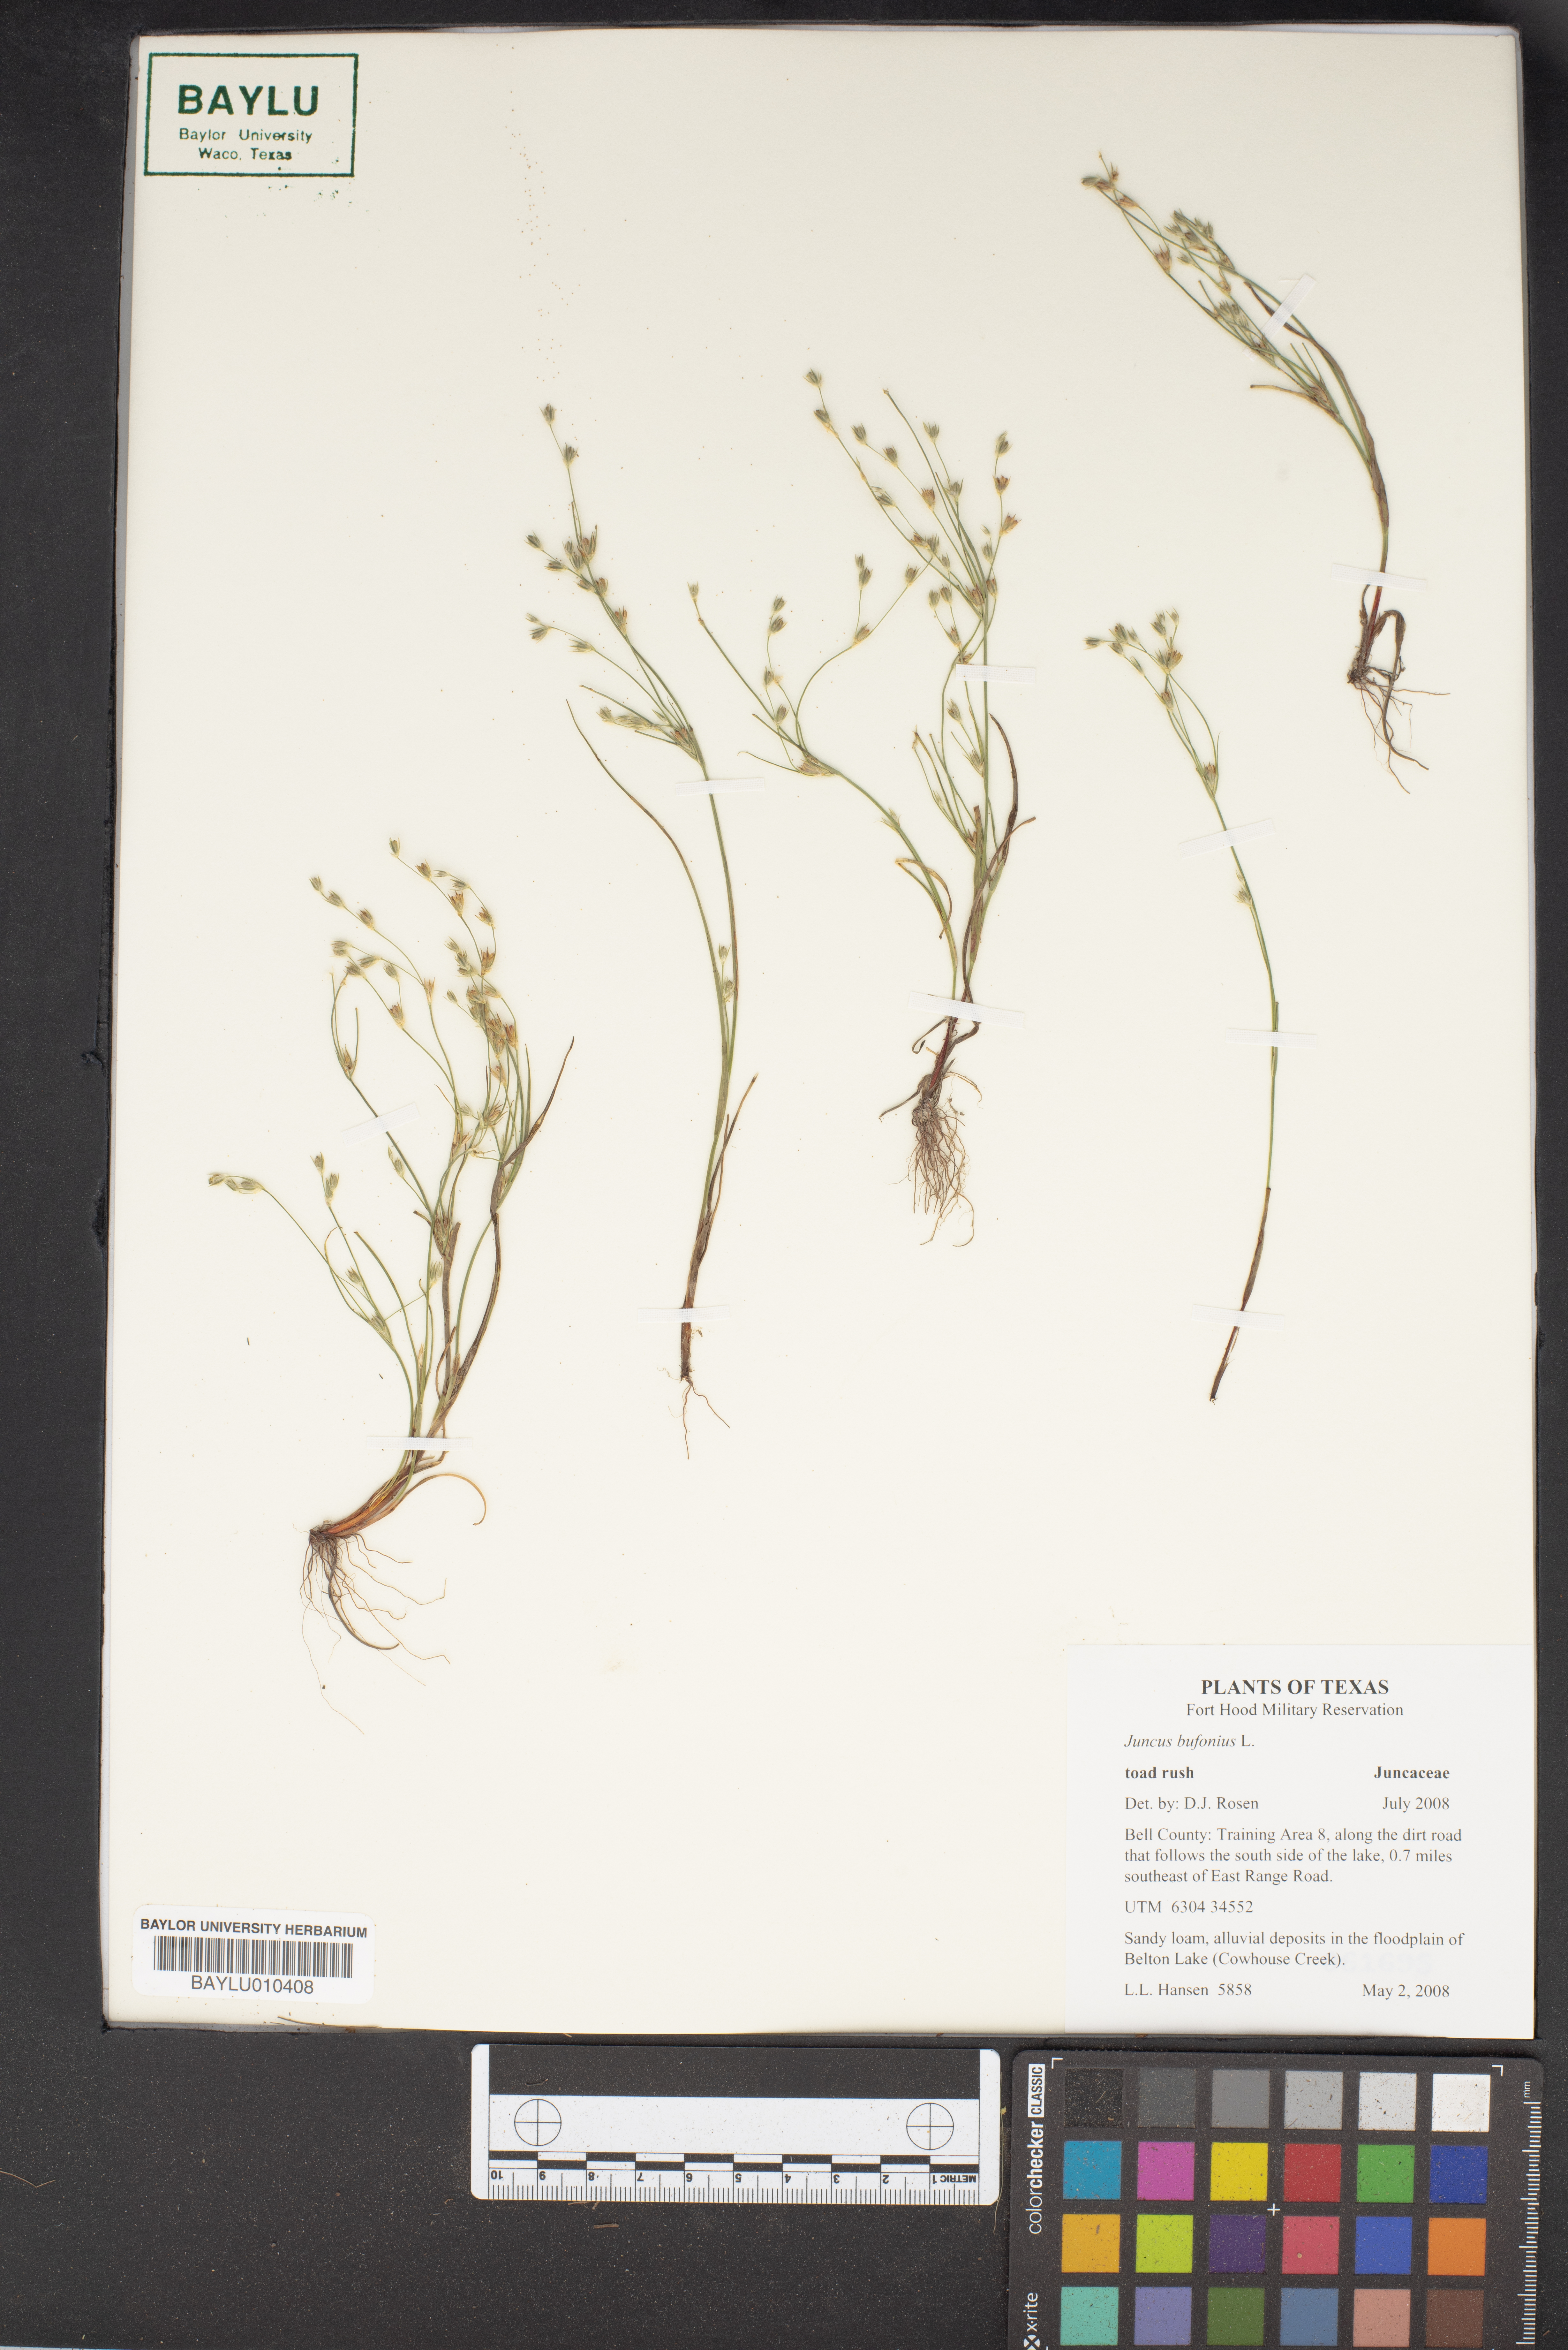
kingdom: Plantae
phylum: Tracheophyta
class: Liliopsida
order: Poales
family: Juncaceae
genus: Juncus
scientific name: Juncus bufonius
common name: Toad rush
